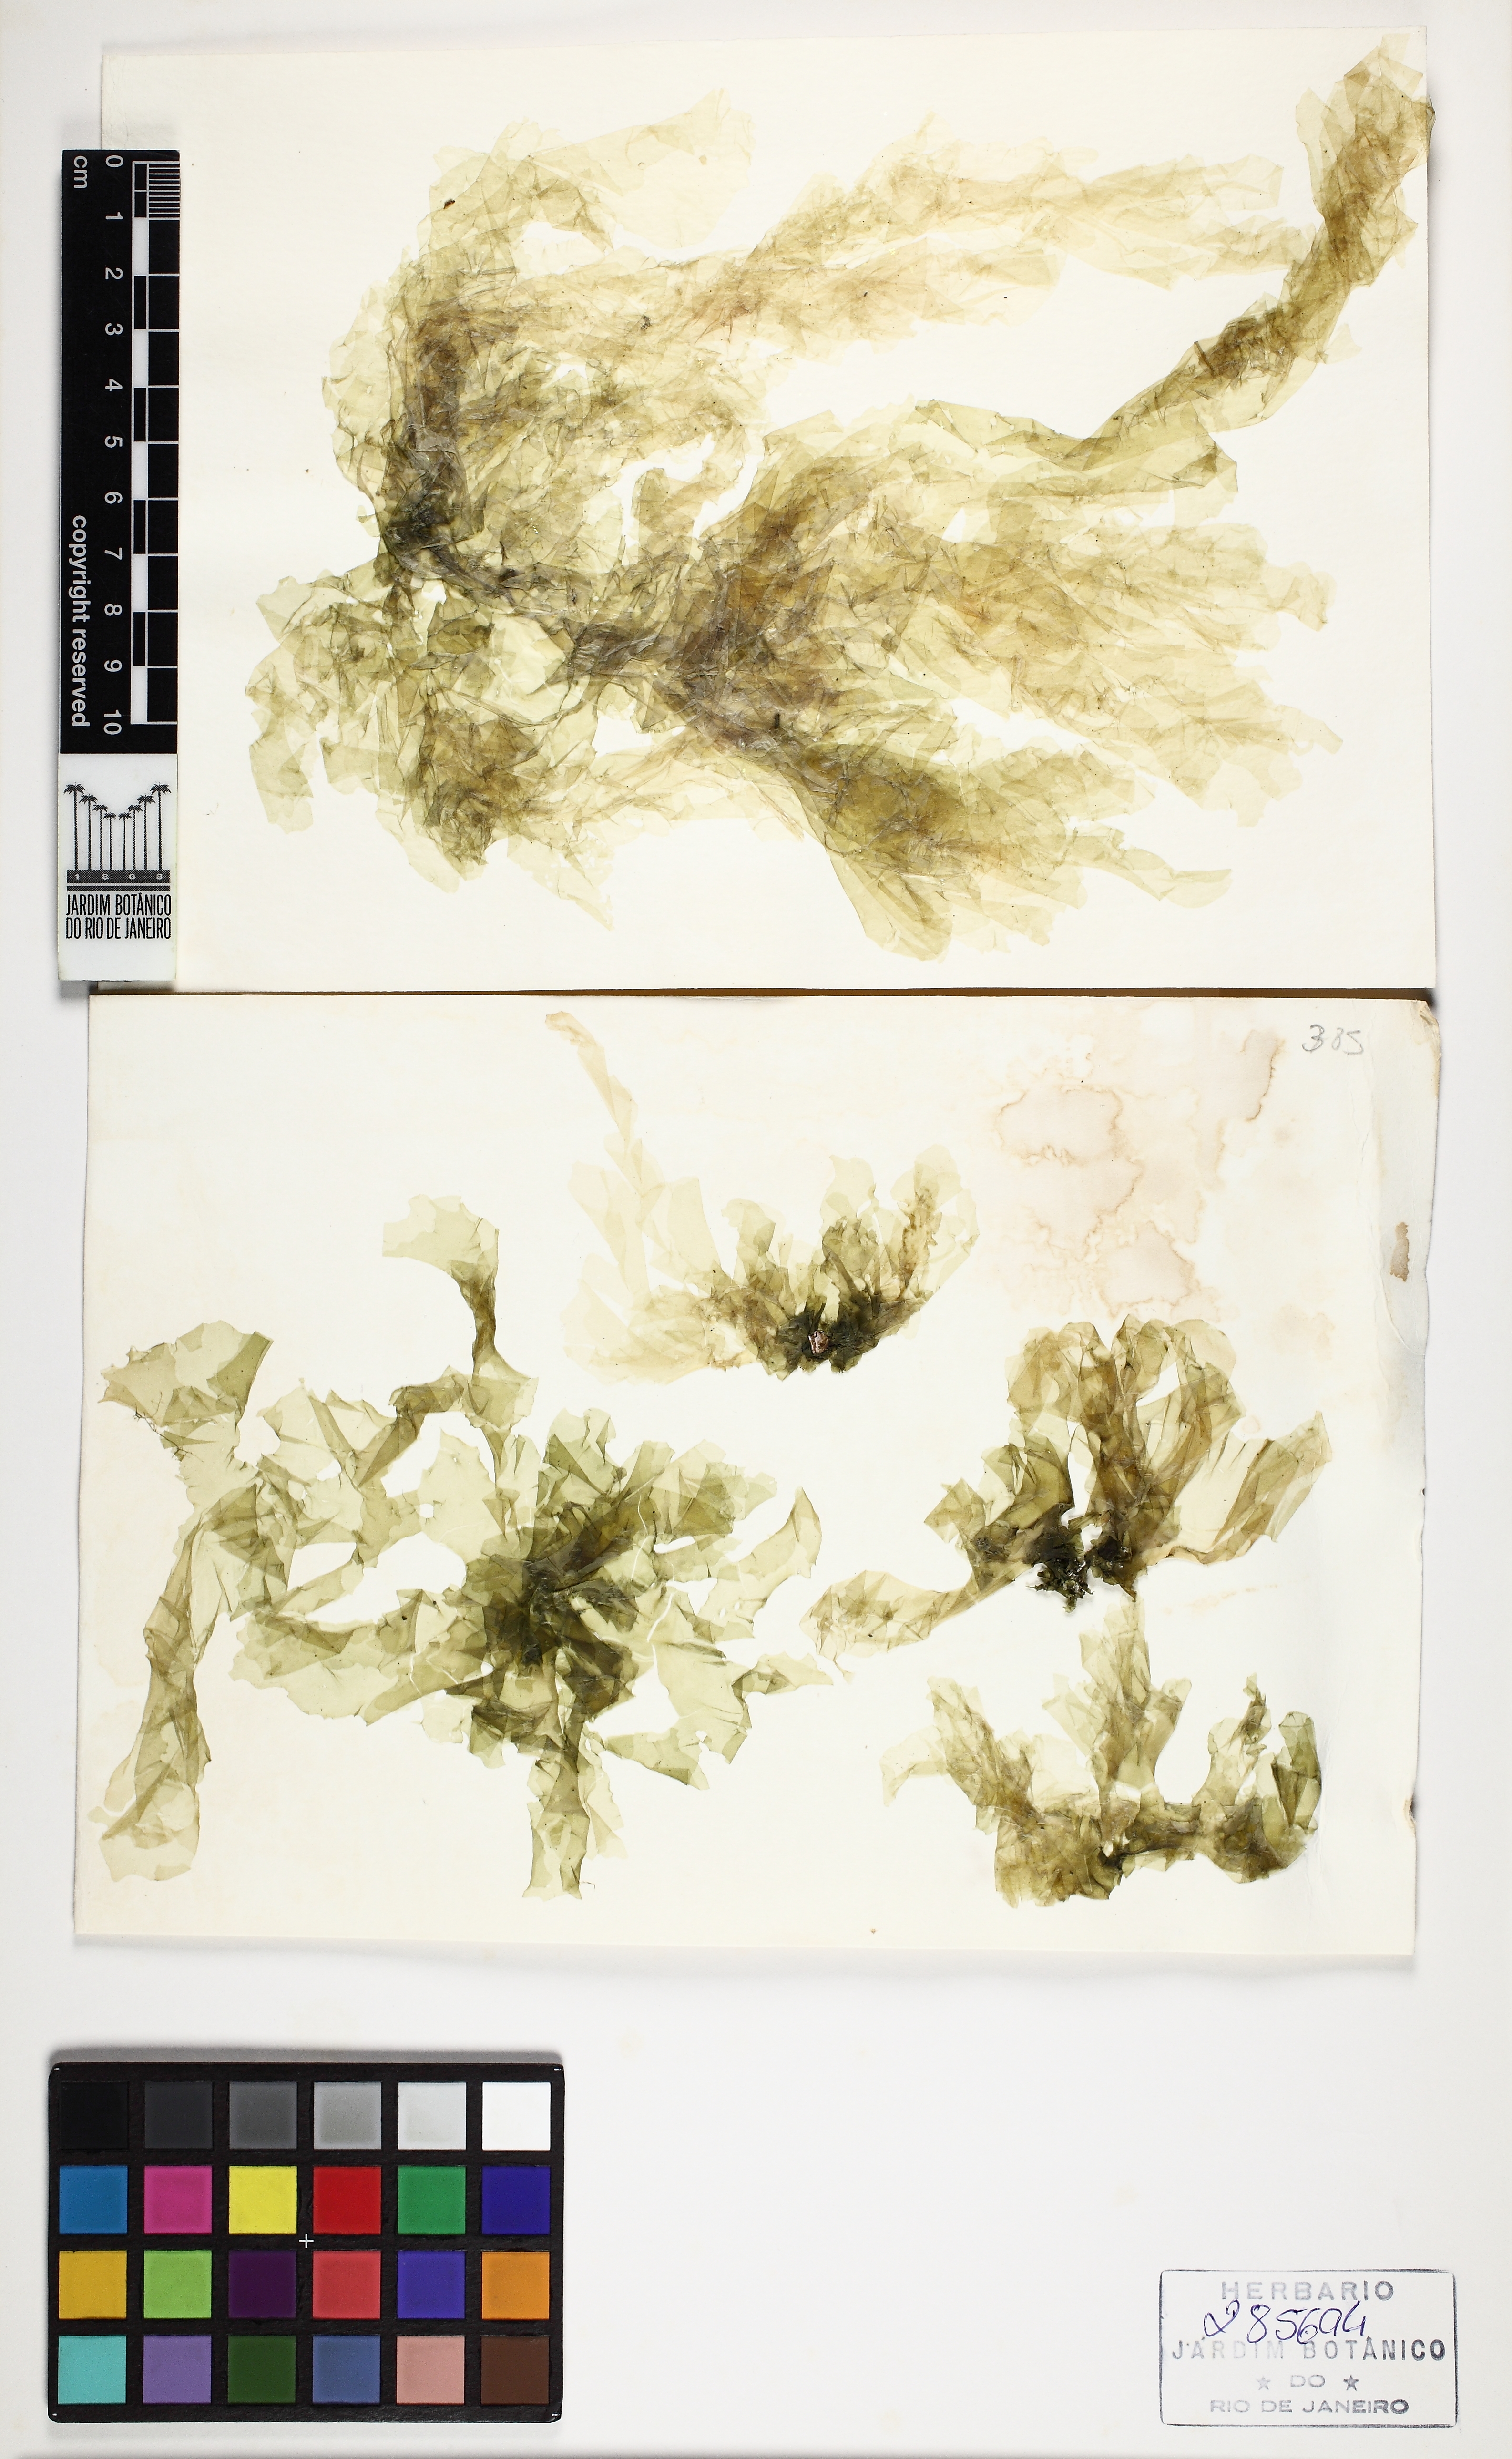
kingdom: Plantae
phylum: Chlorophyta
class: Ulvophyceae
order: Ulvales
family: Ulvaceae
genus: Ulva
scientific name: Ulva rigida
